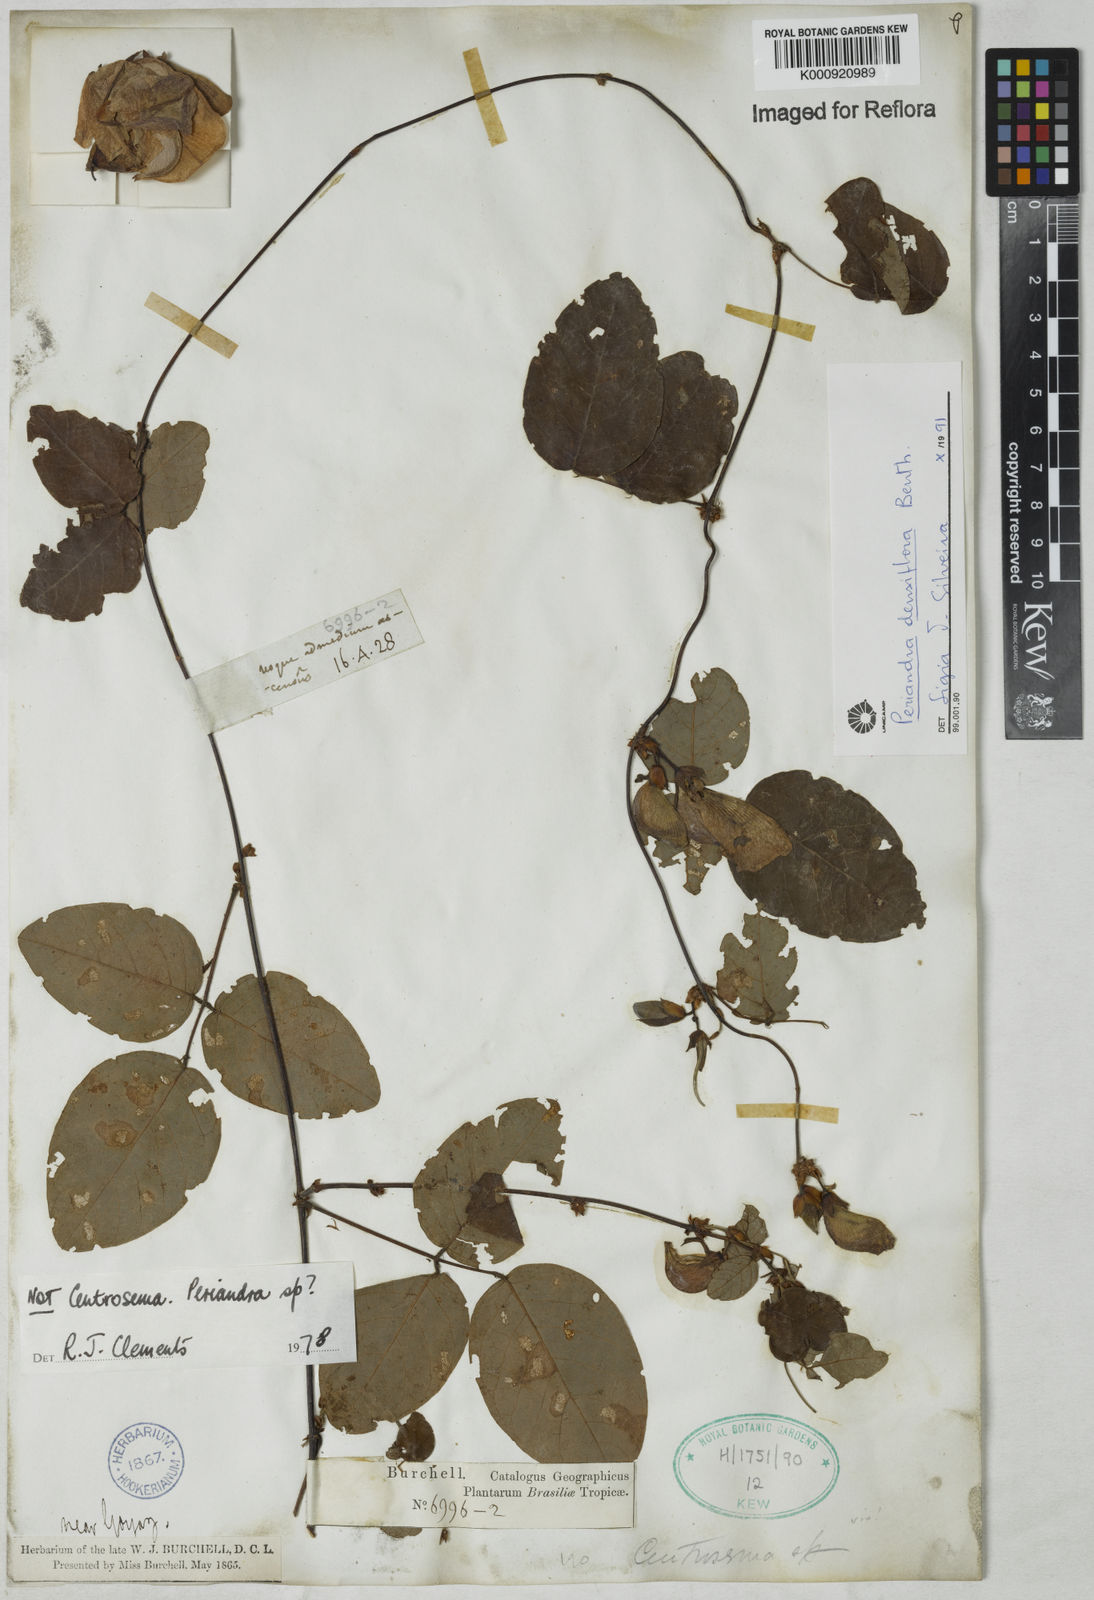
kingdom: Plantae
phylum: Tracheophyta
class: Magnoliopsida
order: Fabales
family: Fabaceae
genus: Periandra
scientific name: Periandra densiflora
